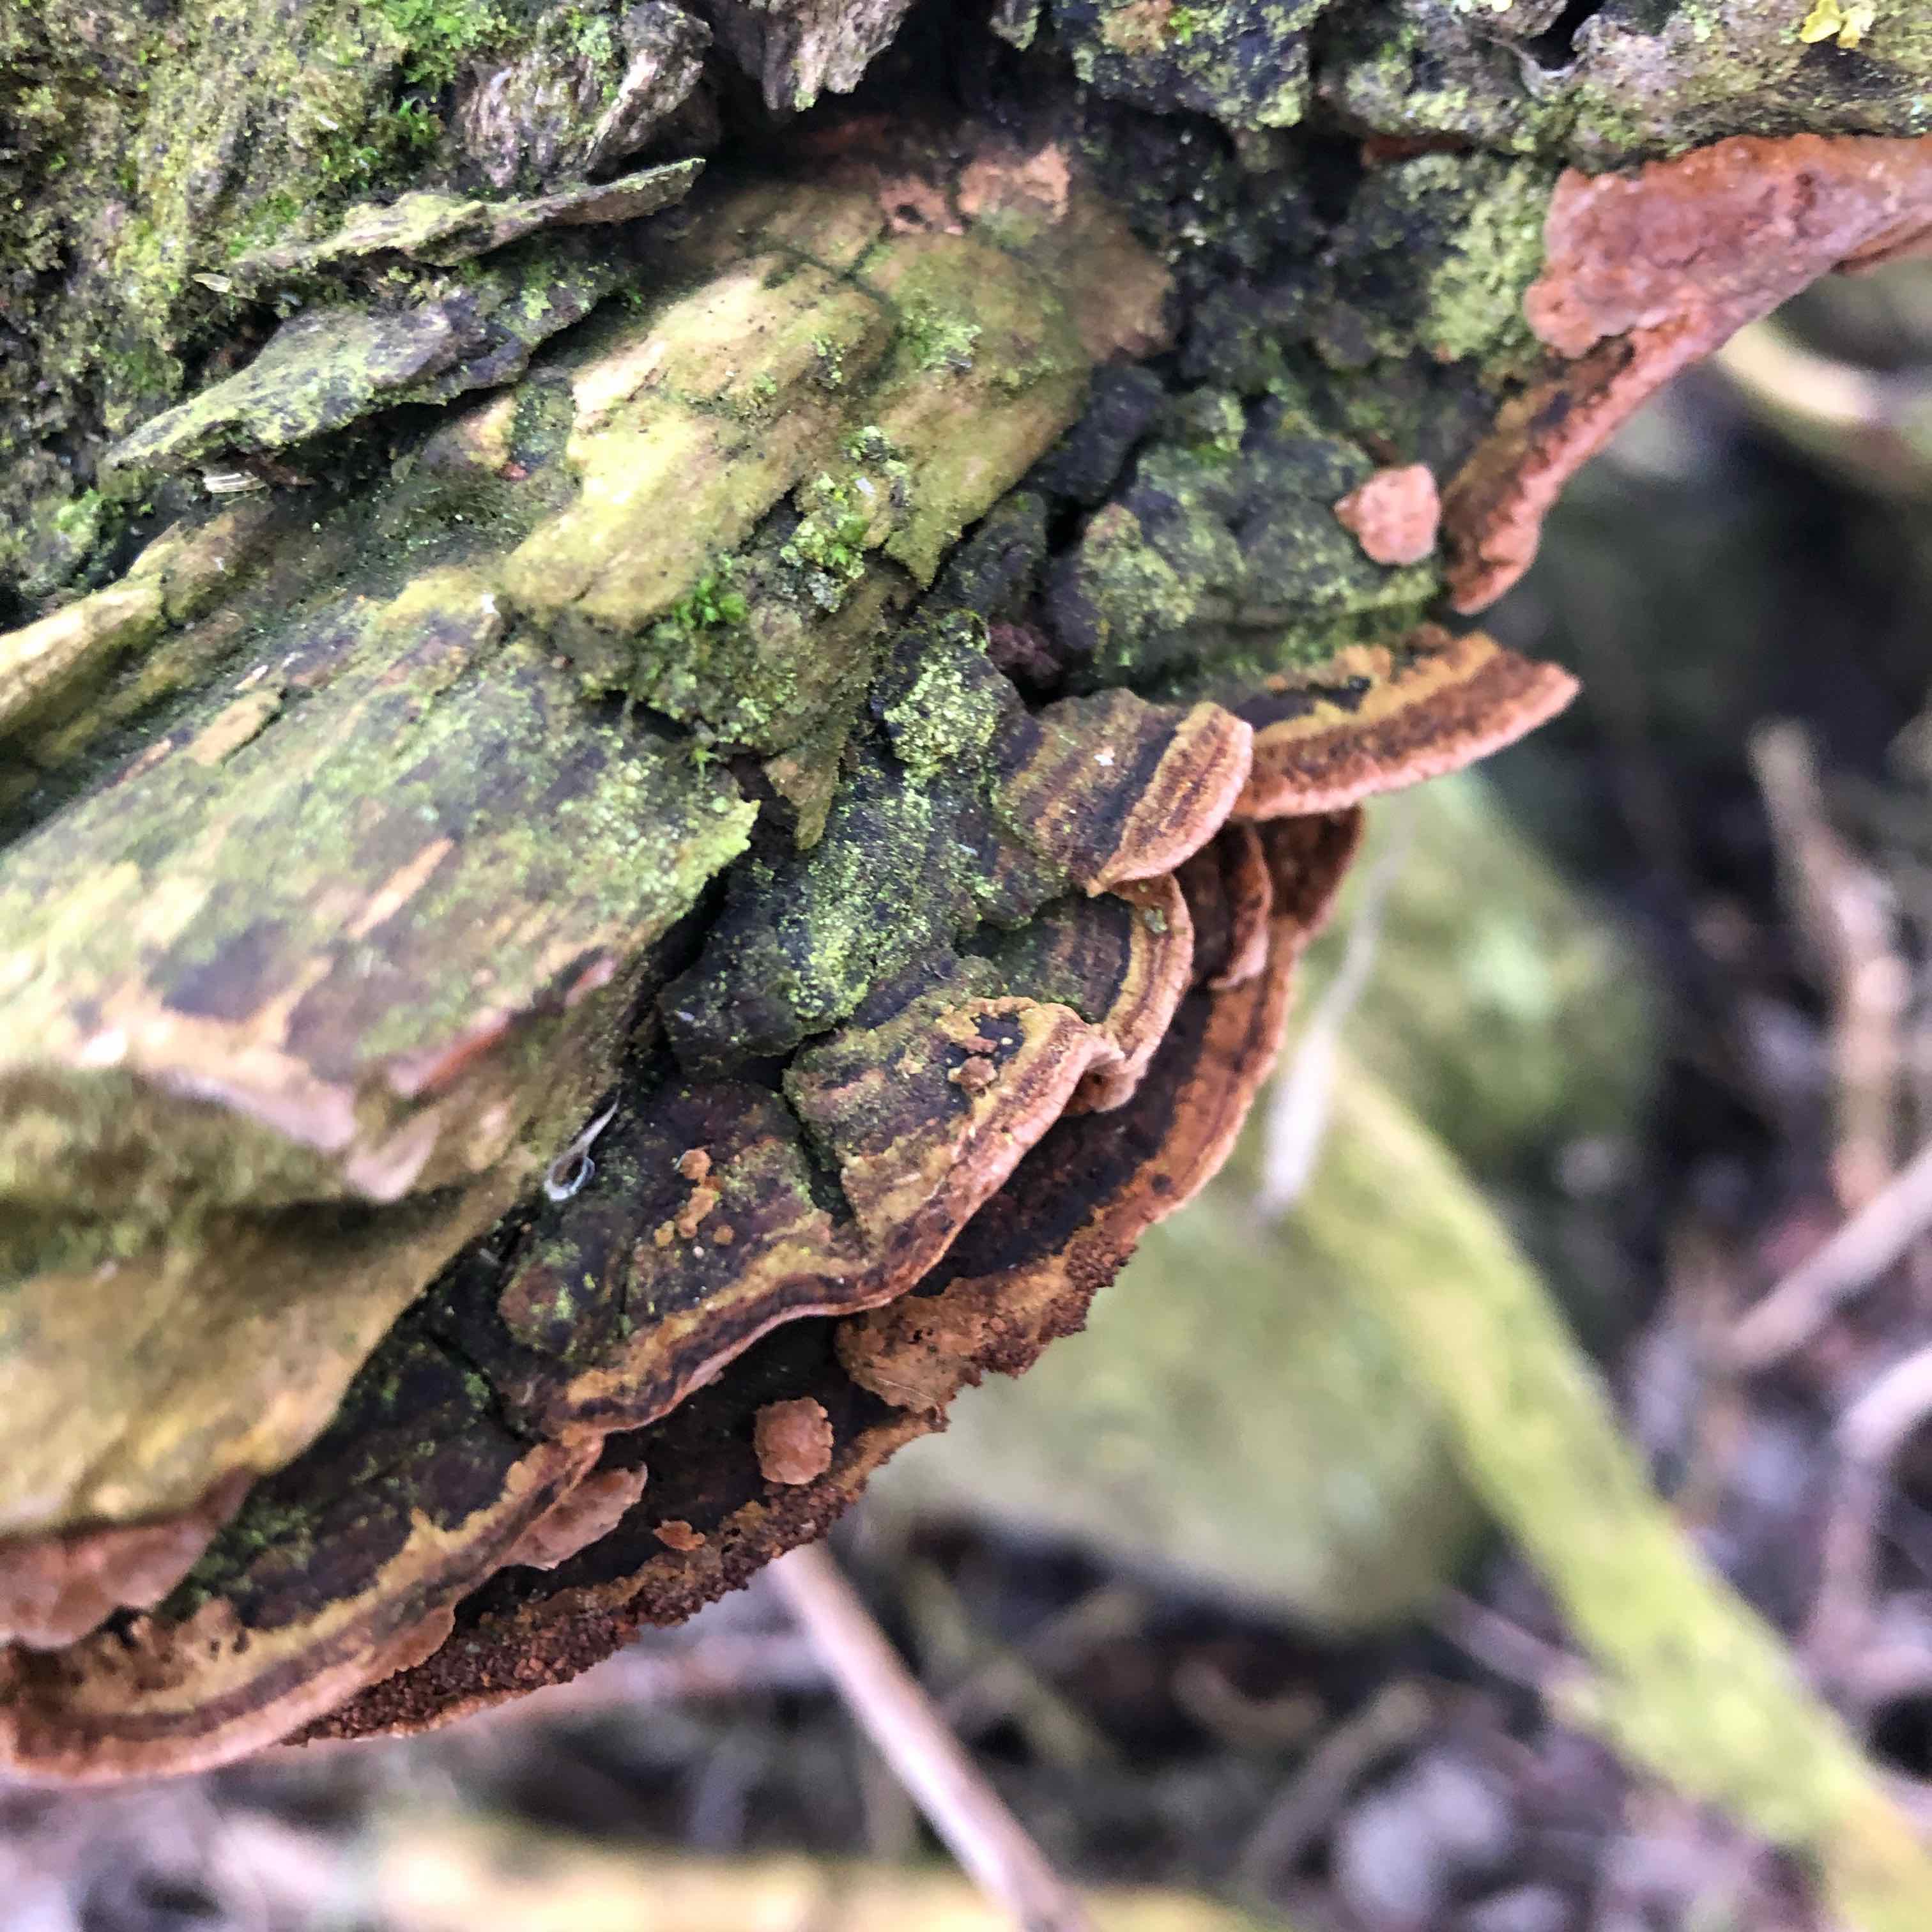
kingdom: Fungi
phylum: Basidiomycota
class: Agaricomycetes
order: Hymenochaetales
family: Hymenochaetaceae
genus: Phellinopsis
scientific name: Phellinopsis conchata
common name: pile-ildporesvamp
